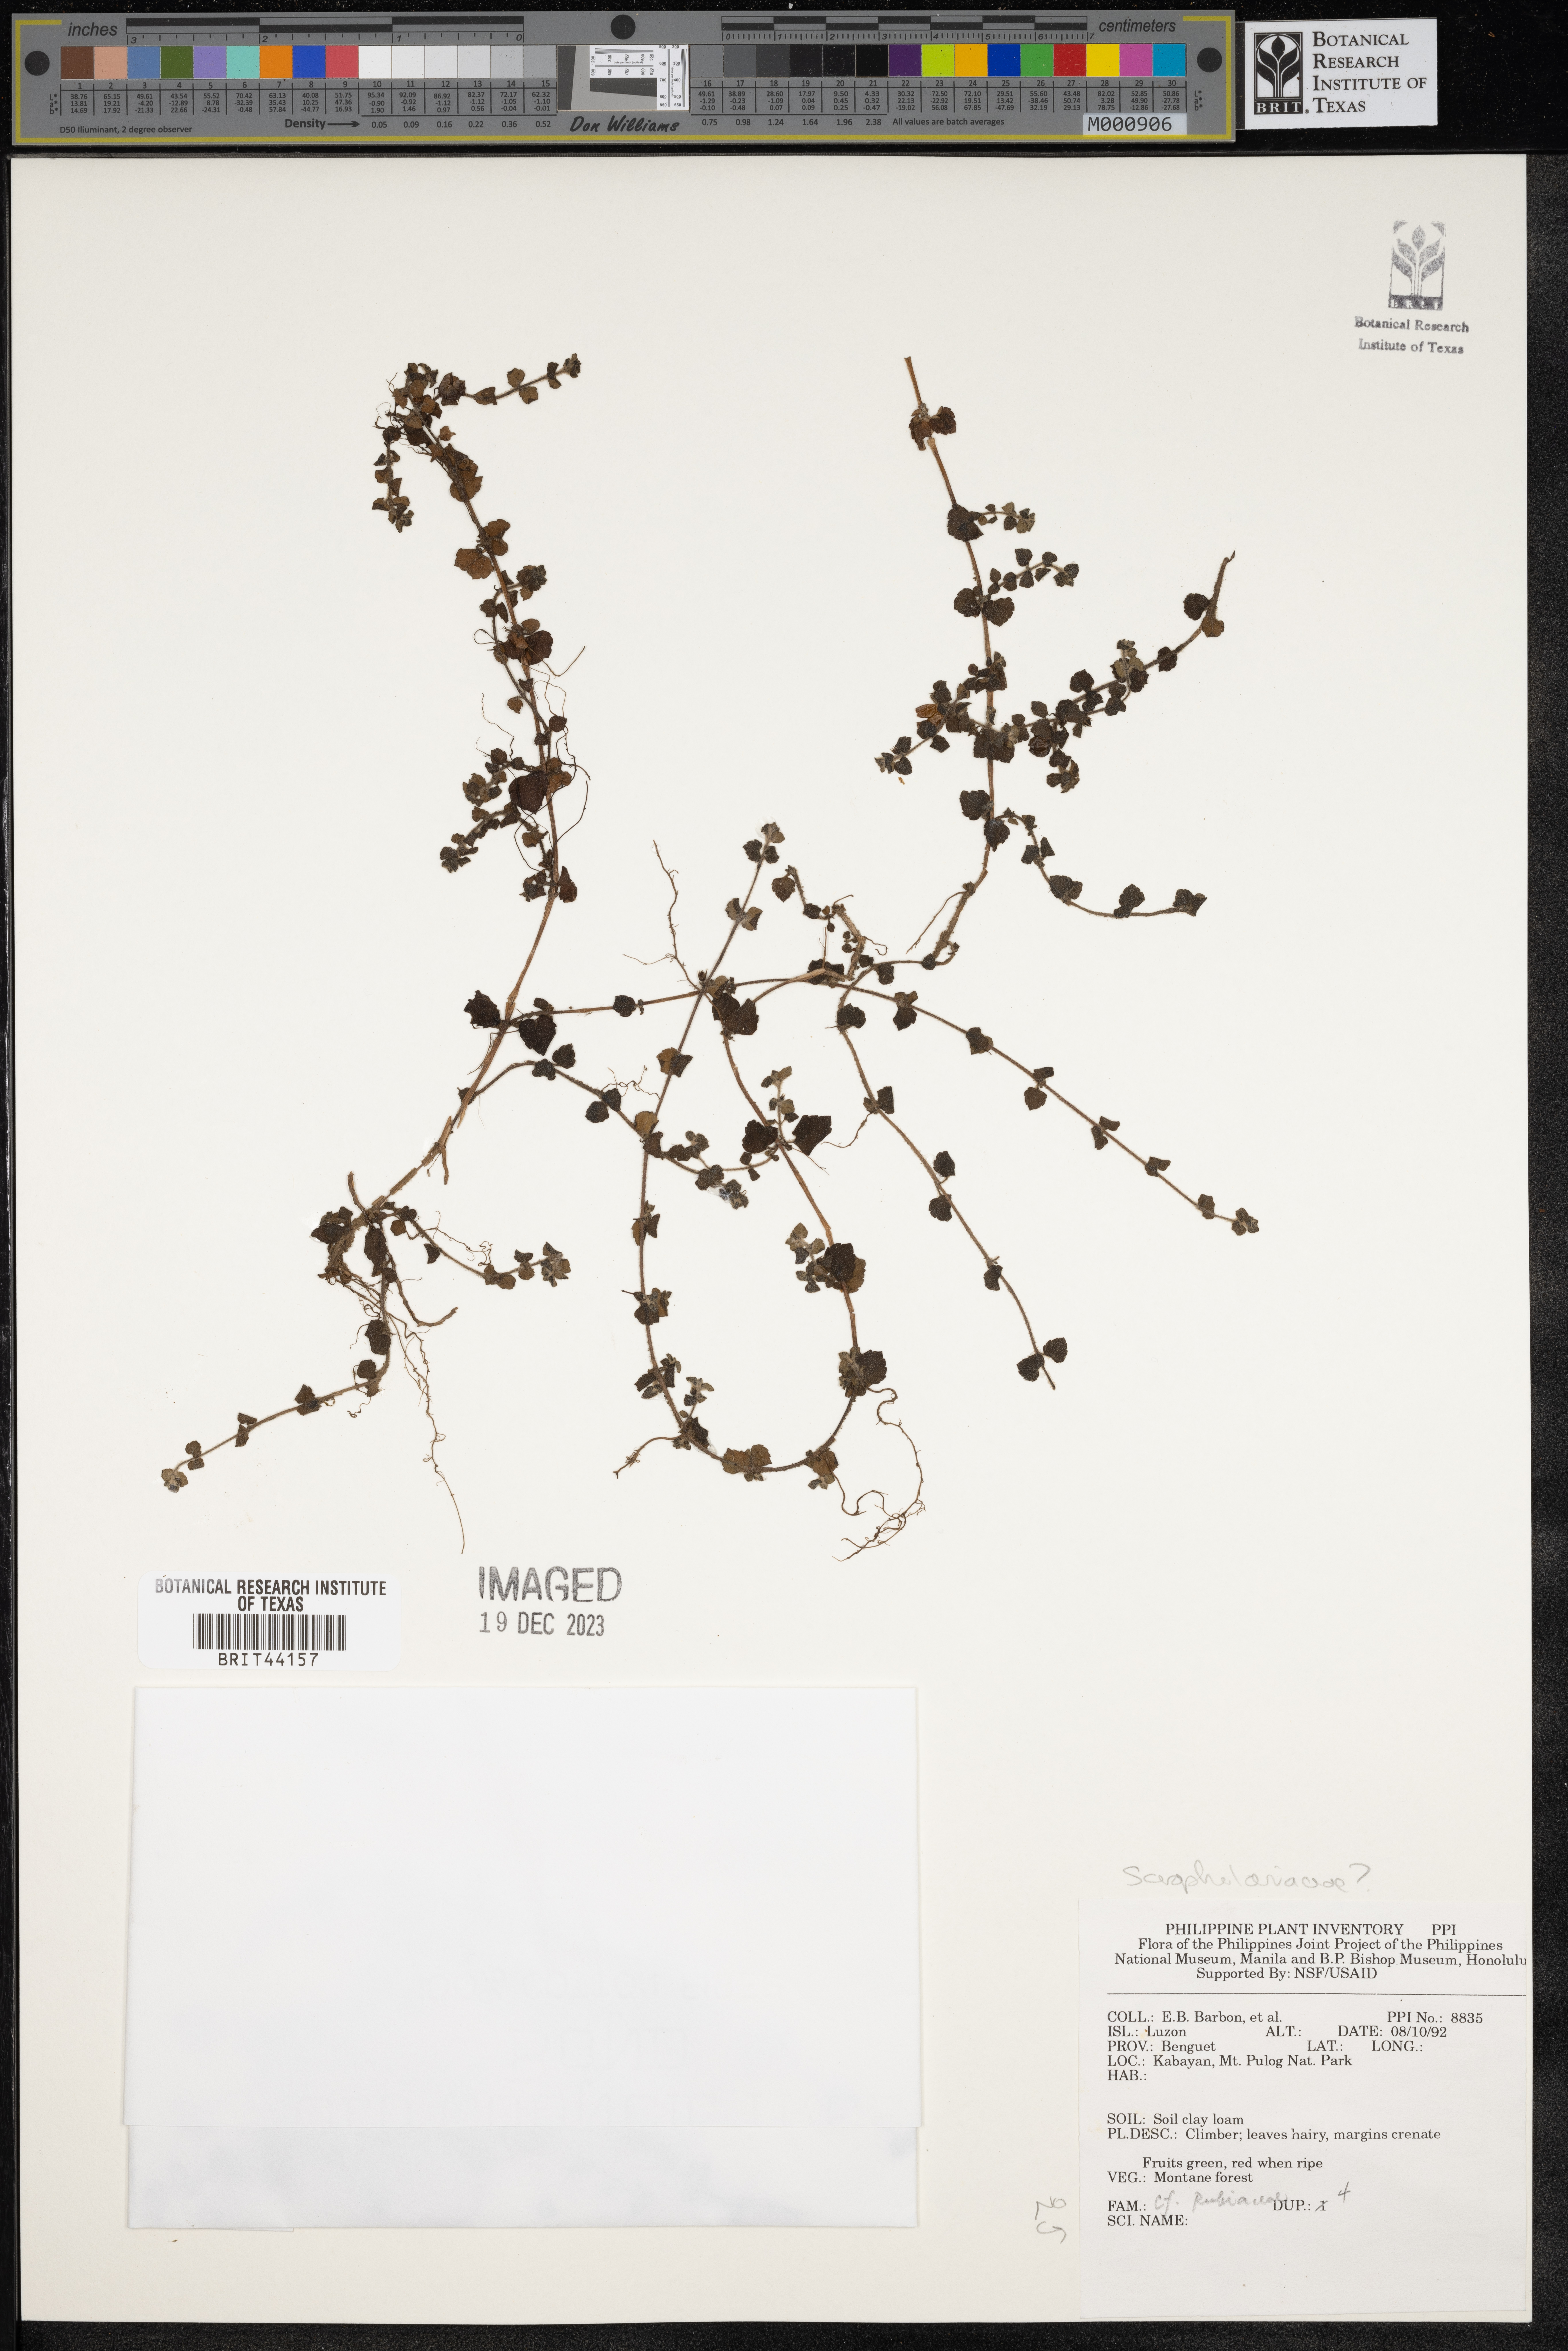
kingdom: Plantae
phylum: Tracheophyta
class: Magnoliopsida
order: Lamiales
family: Scrophulariaceae
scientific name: Scrophulariaceae
